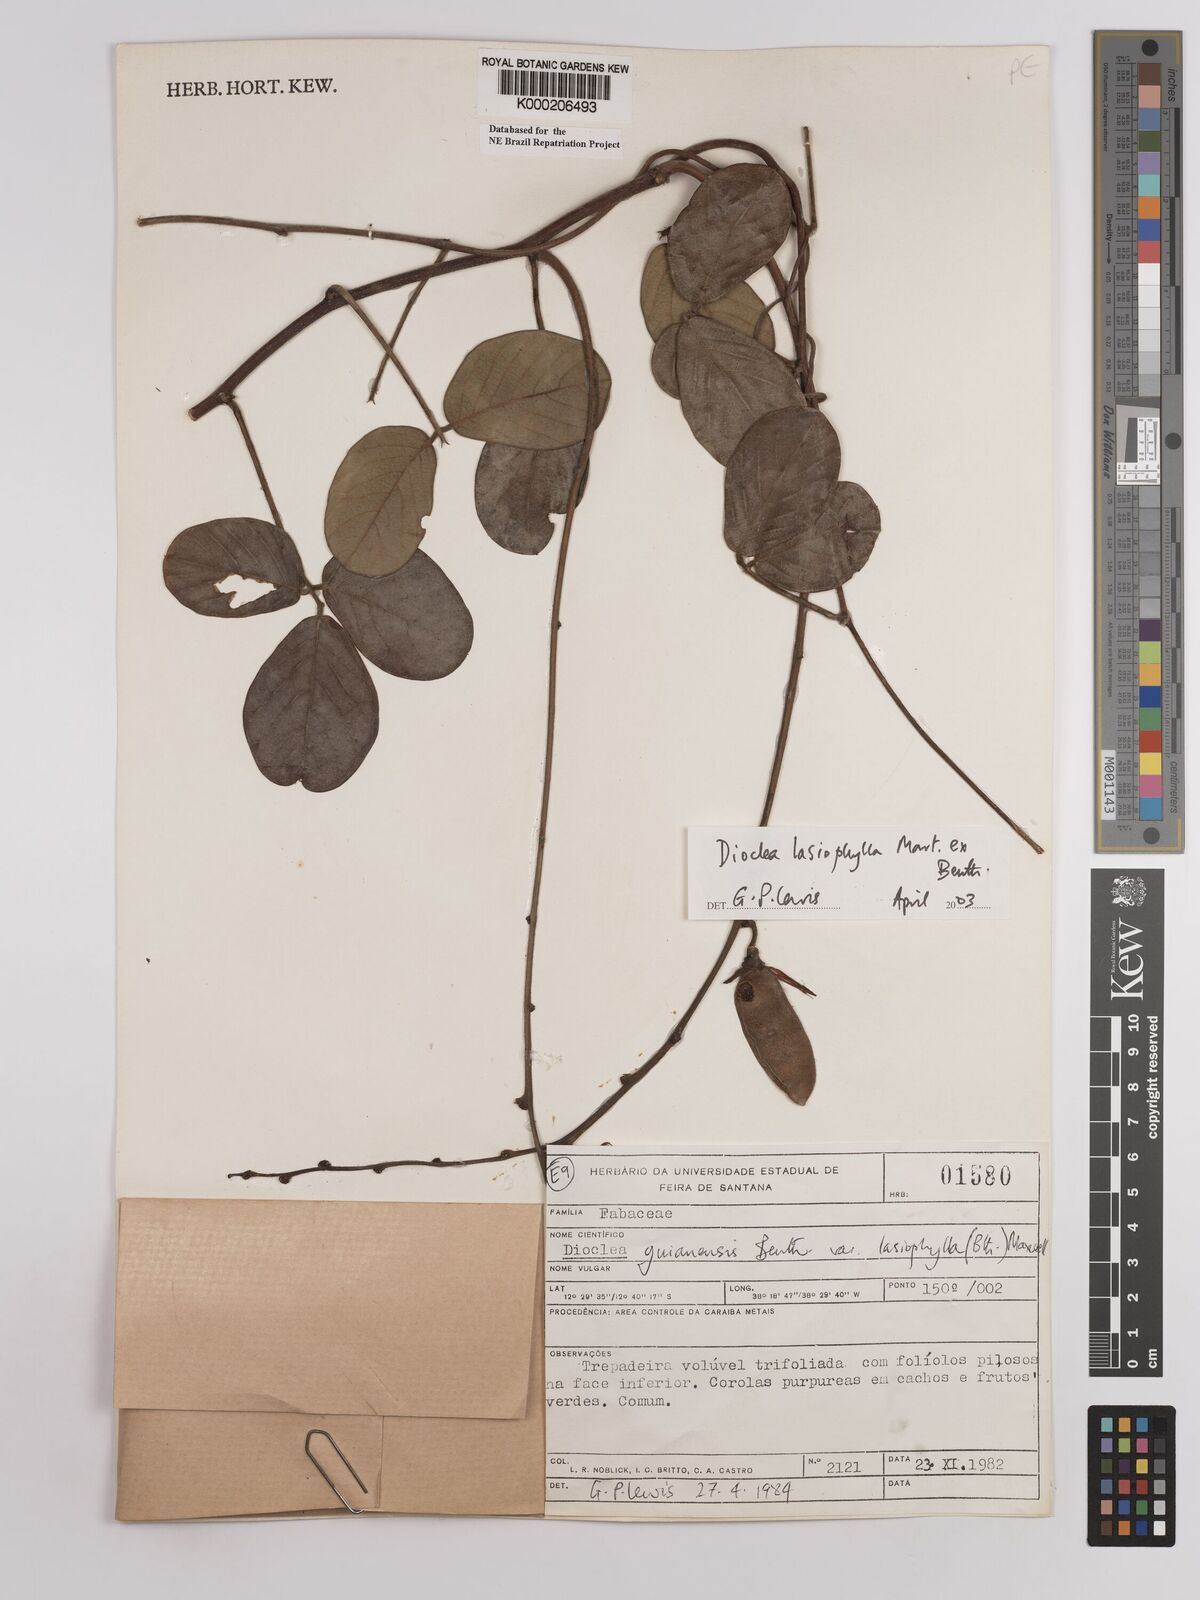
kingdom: Plantae
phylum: Tracheophyta
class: Magnoliopsida
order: Fabales
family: Fabaceae
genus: Dioclea
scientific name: Dioclea virgata
